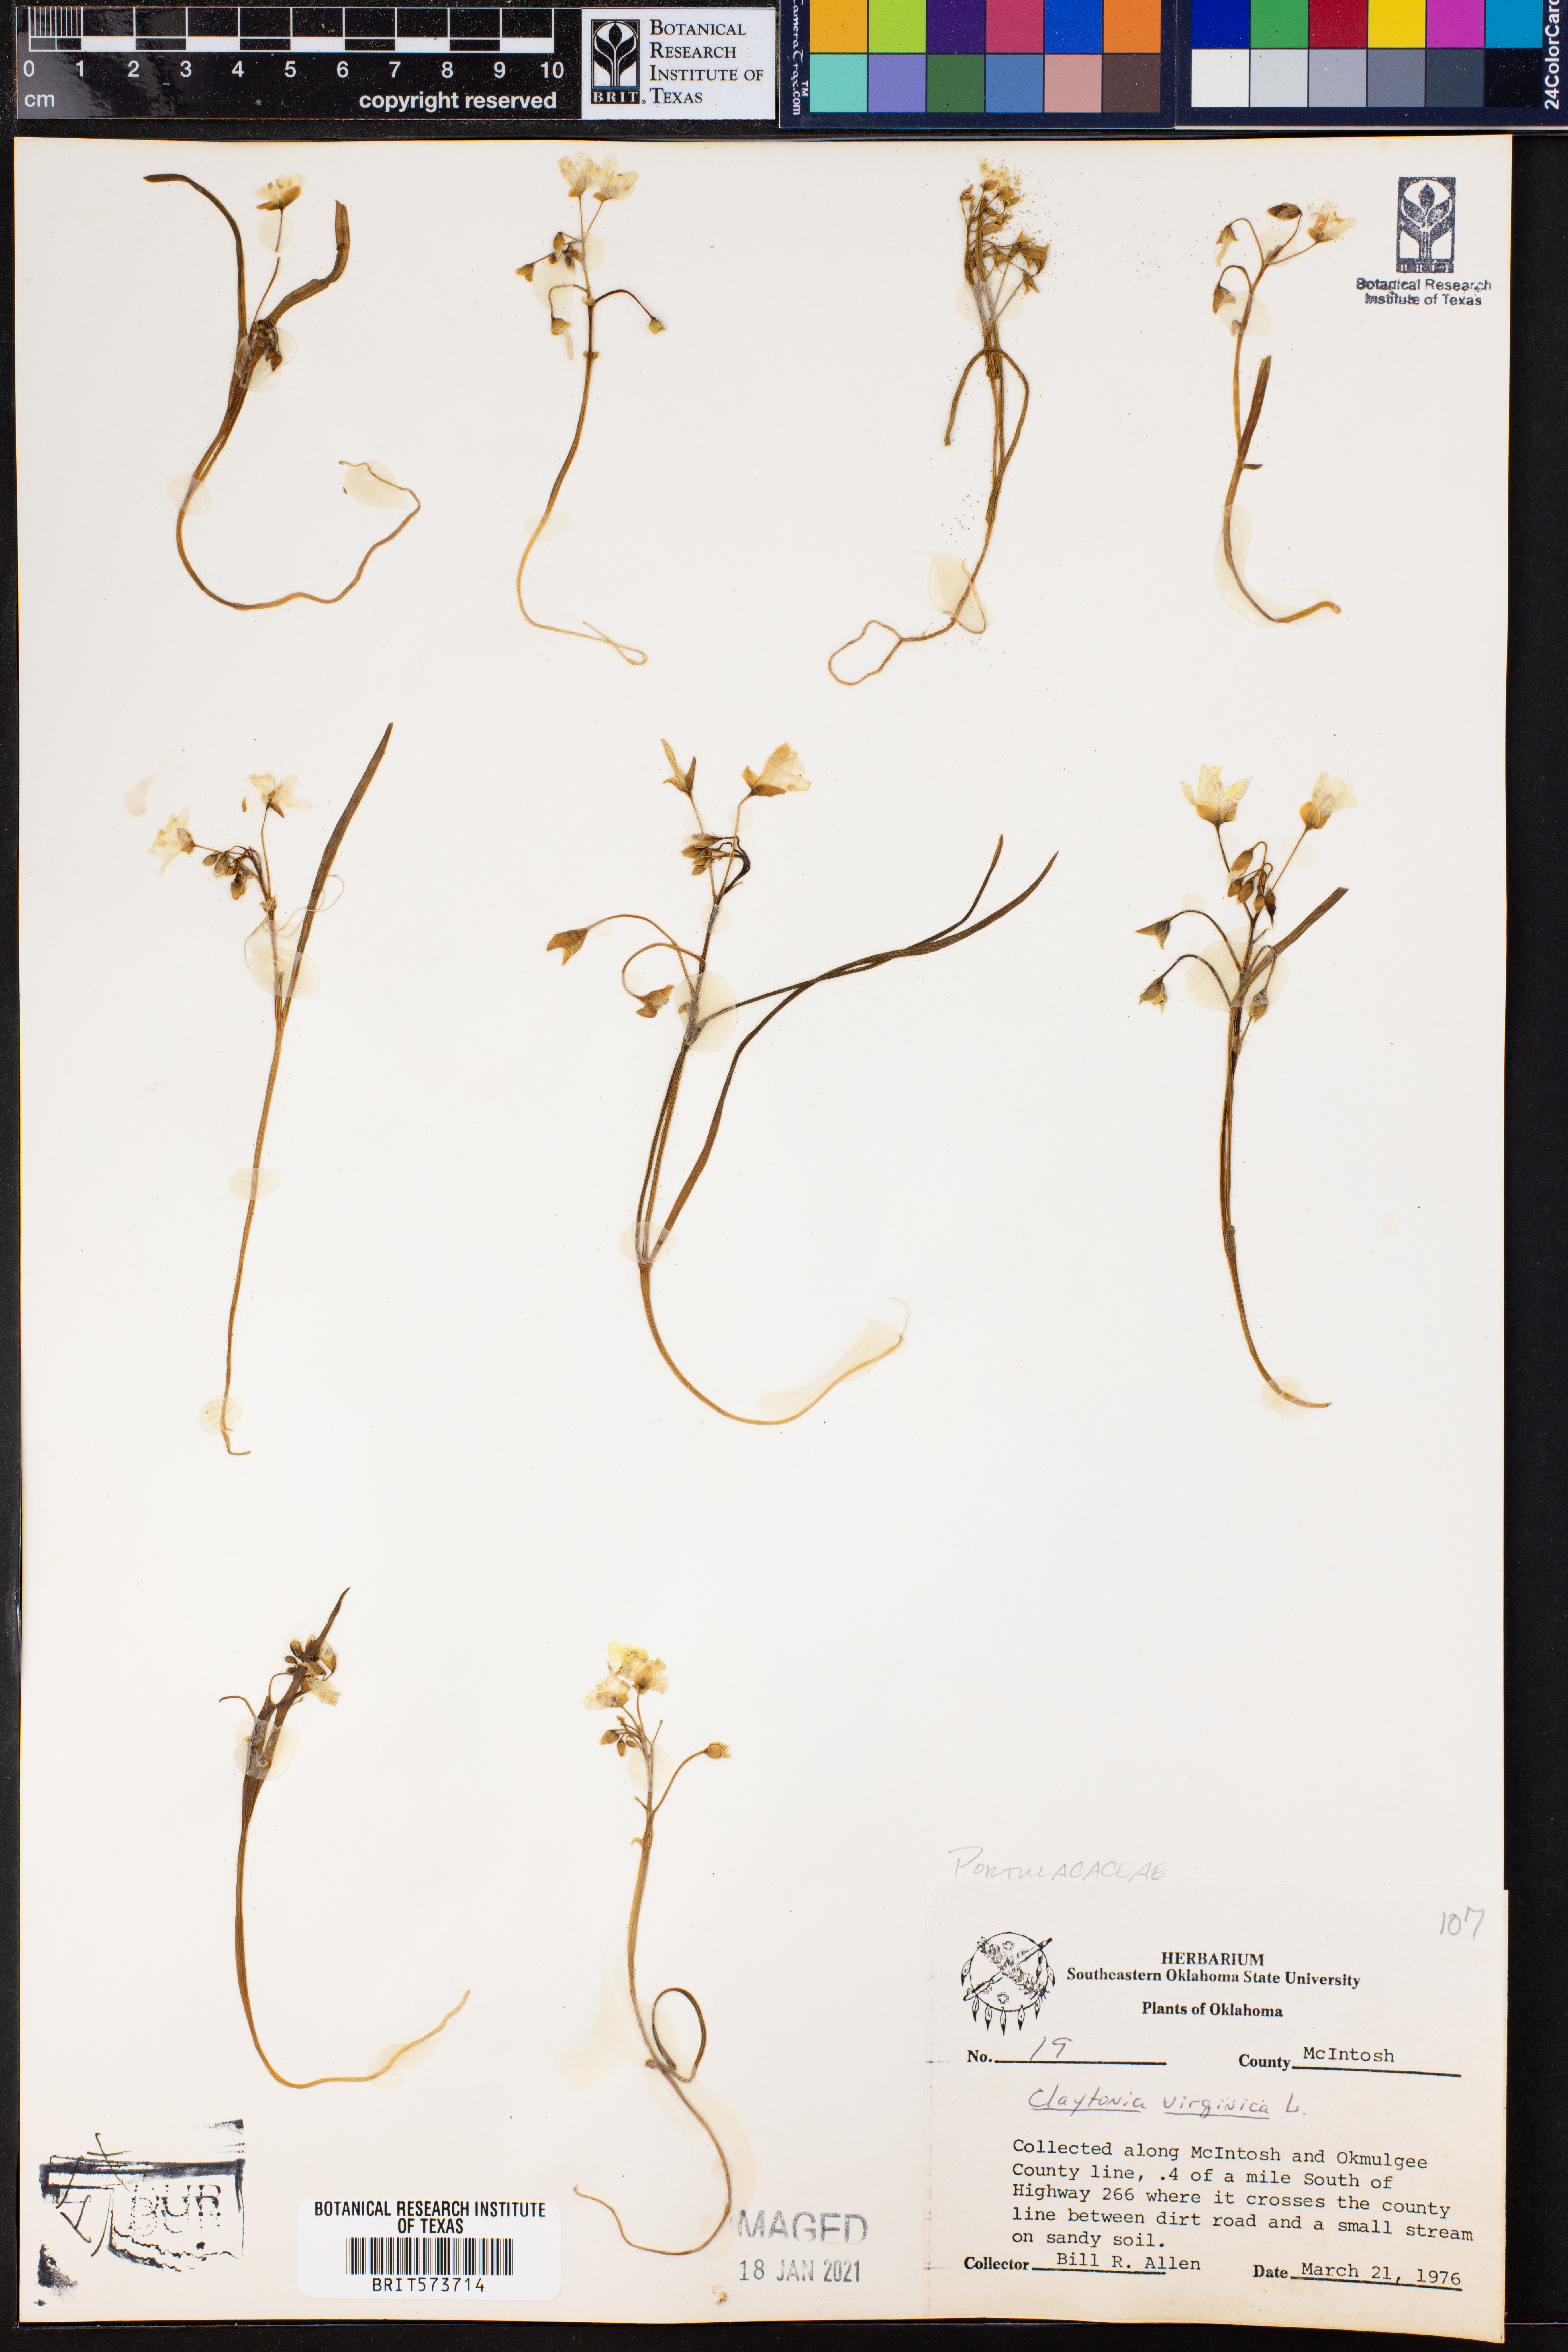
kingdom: Plantae
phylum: Tracheophyta
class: Magnoliopsida
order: Caryophyllales
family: Montiaceae
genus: Claytonia
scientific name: Claytonia virginica
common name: Virginia springbeauty
